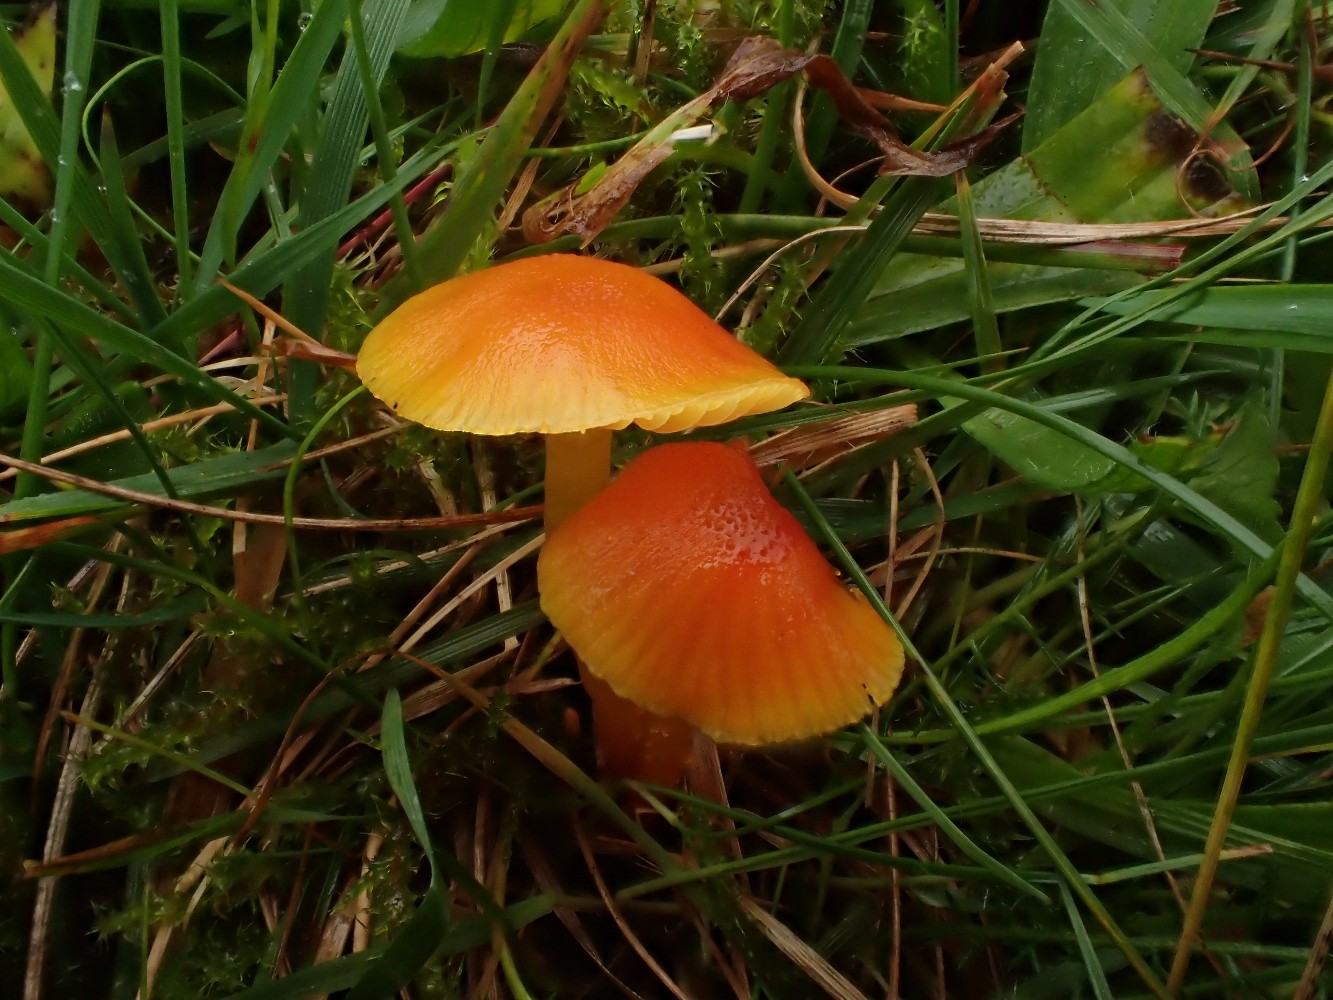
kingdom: Fungi
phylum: Basidiomycota
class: Agaricomycetes
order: Agaricales
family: Hygrophoraceae
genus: Hygrocybe
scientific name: Hygrocybe ceracea
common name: voksgul vokshat
